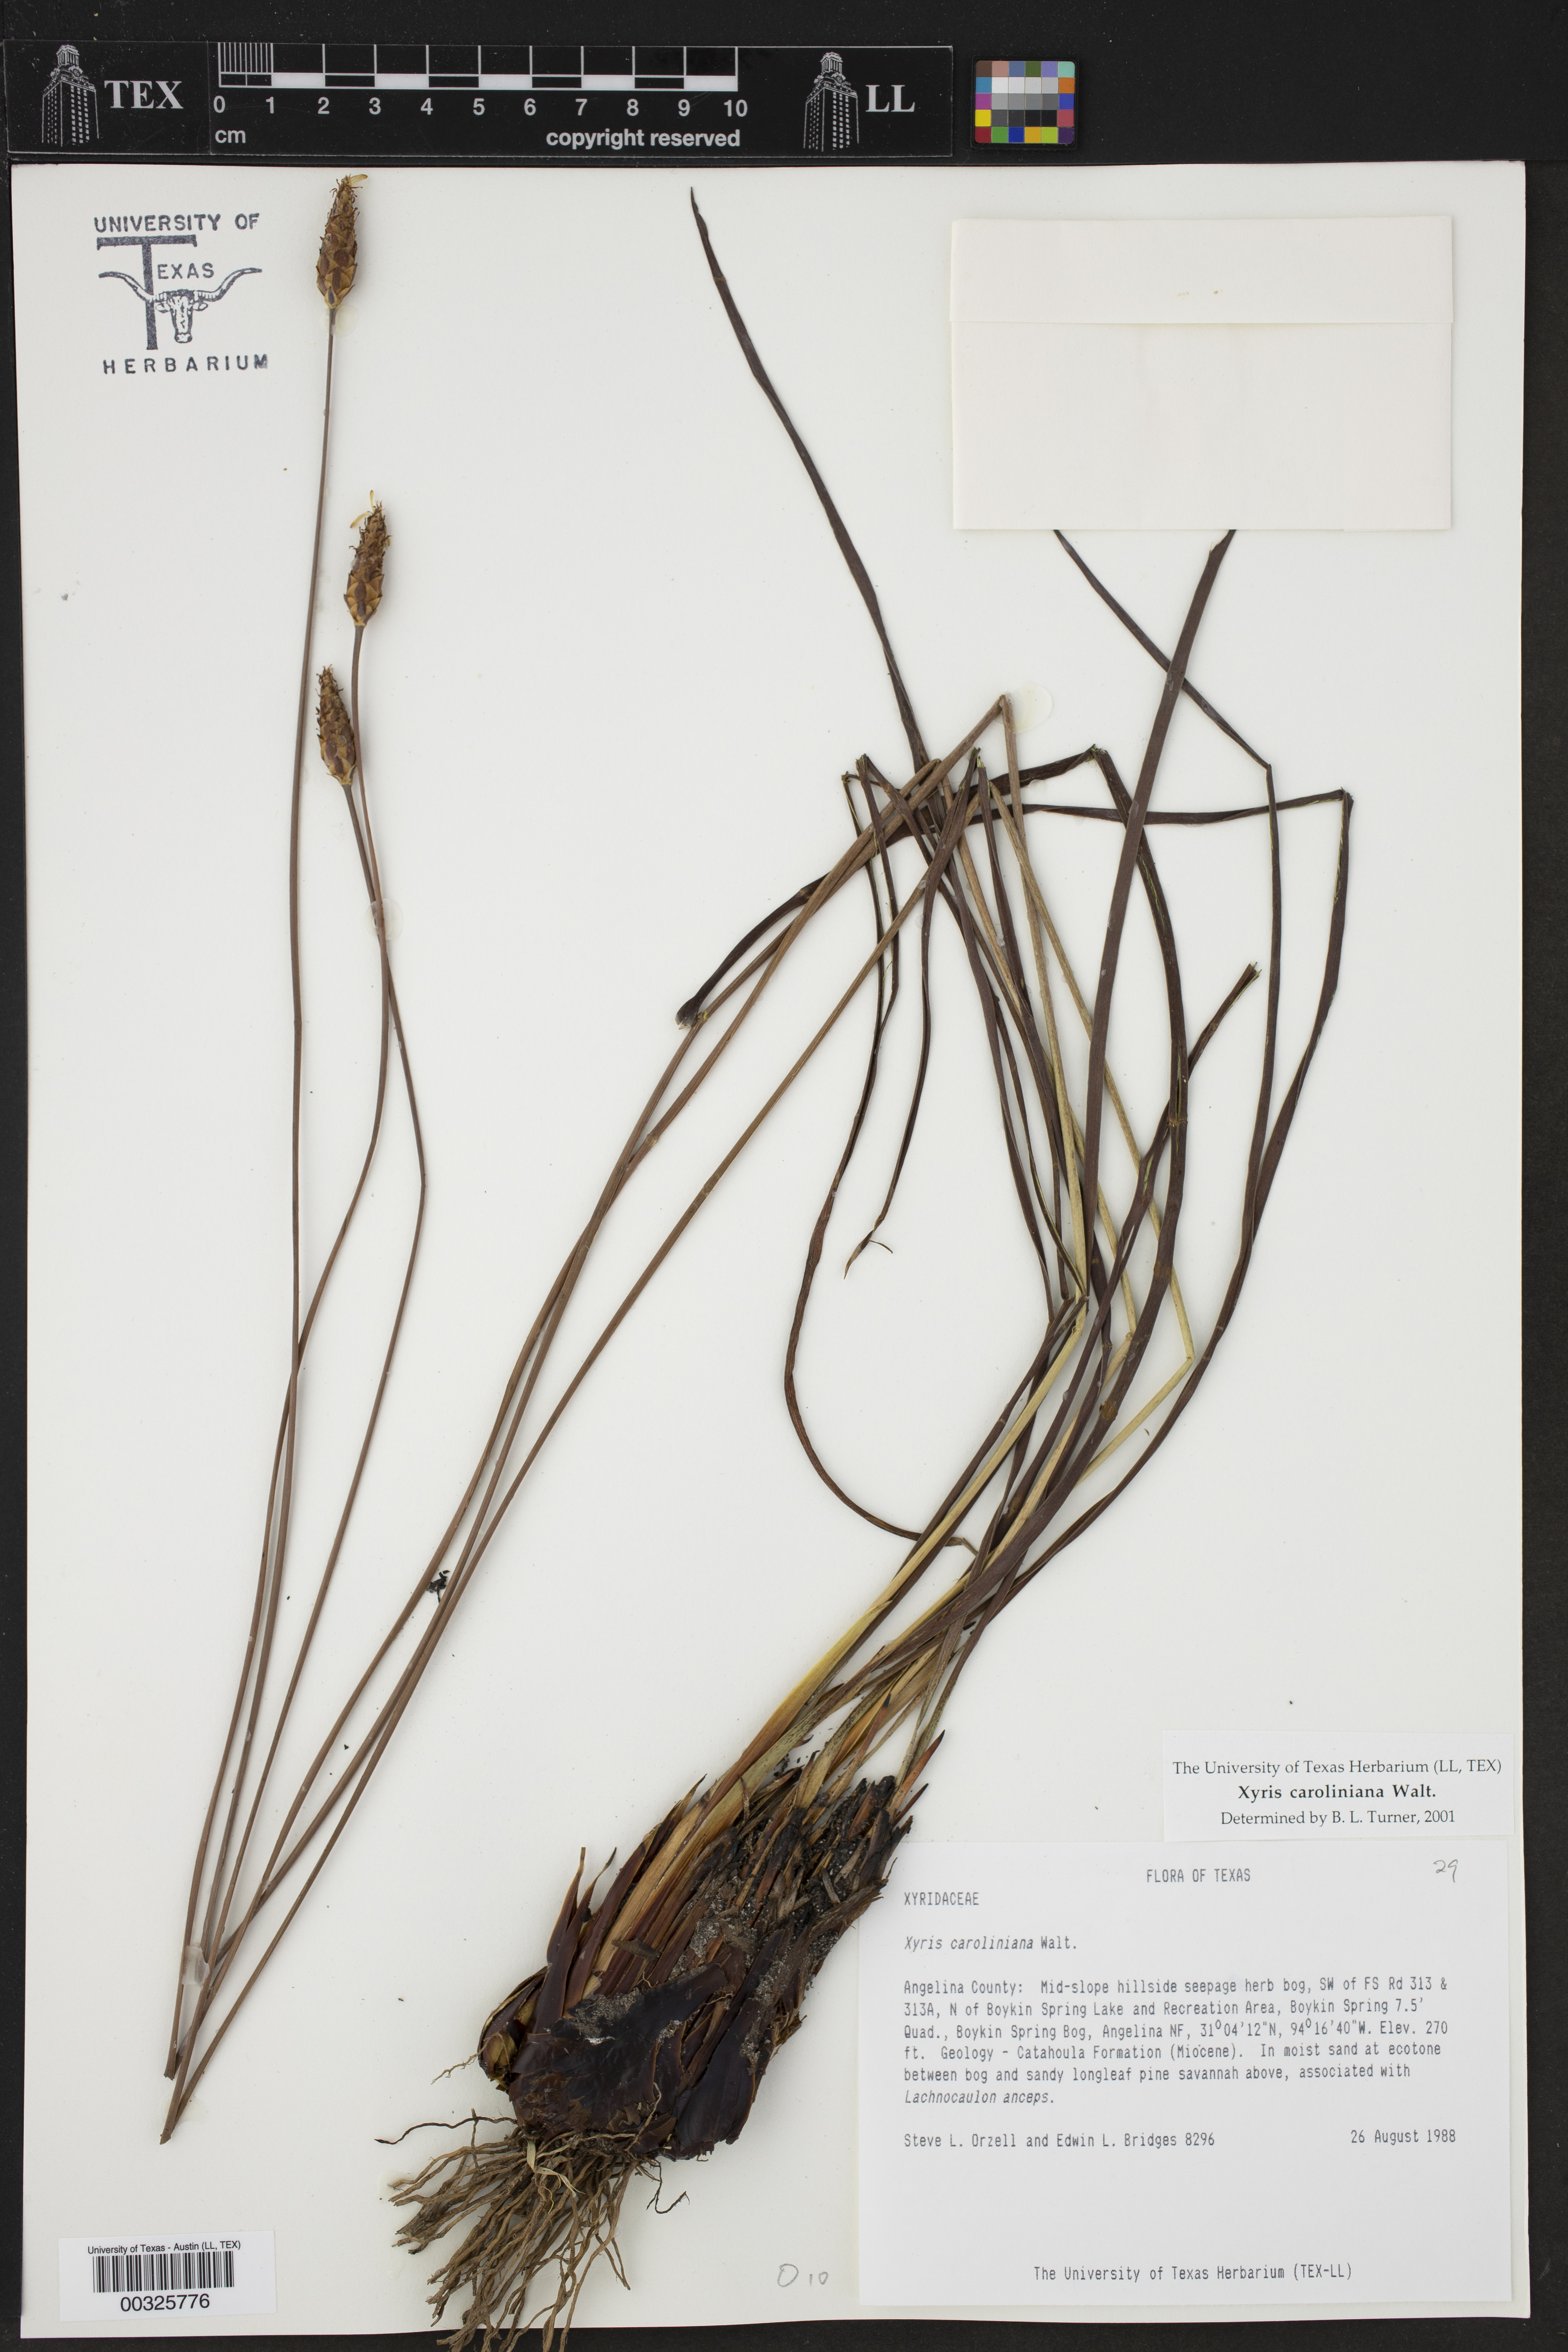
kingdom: Plantae
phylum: Tracheophyta
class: Liliopsida
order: Poales
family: Xyridaceae
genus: Xyris
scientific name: Xyris caroliniana
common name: Carolina yellow-eyed-grass
